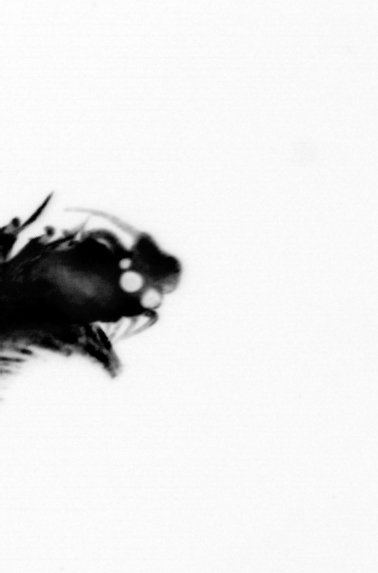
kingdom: Animalia
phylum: Annelida
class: Polychaeta
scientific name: Polychaeta
